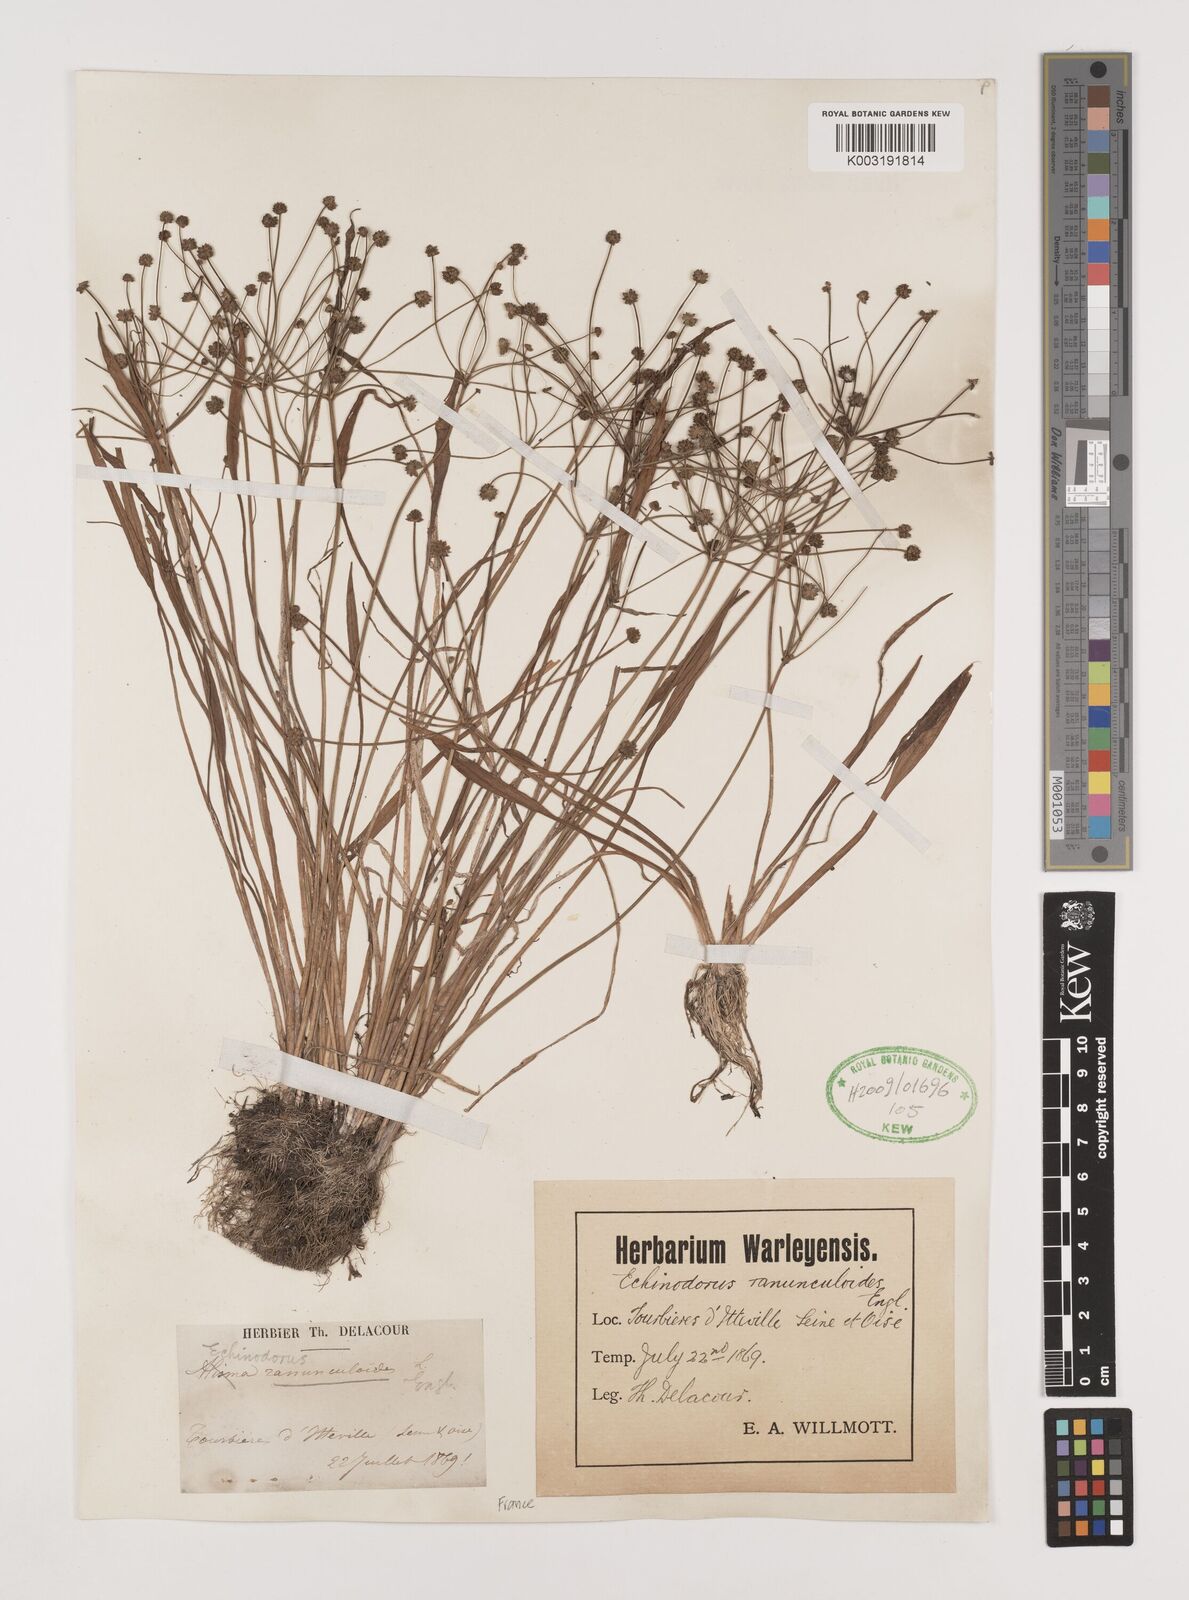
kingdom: Plantae
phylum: Tracheophyta
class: Liliopsida
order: Alismatales
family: Alismataceae
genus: Baldellia
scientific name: Baldellia ranunculoides
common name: Lesser water-plantain
